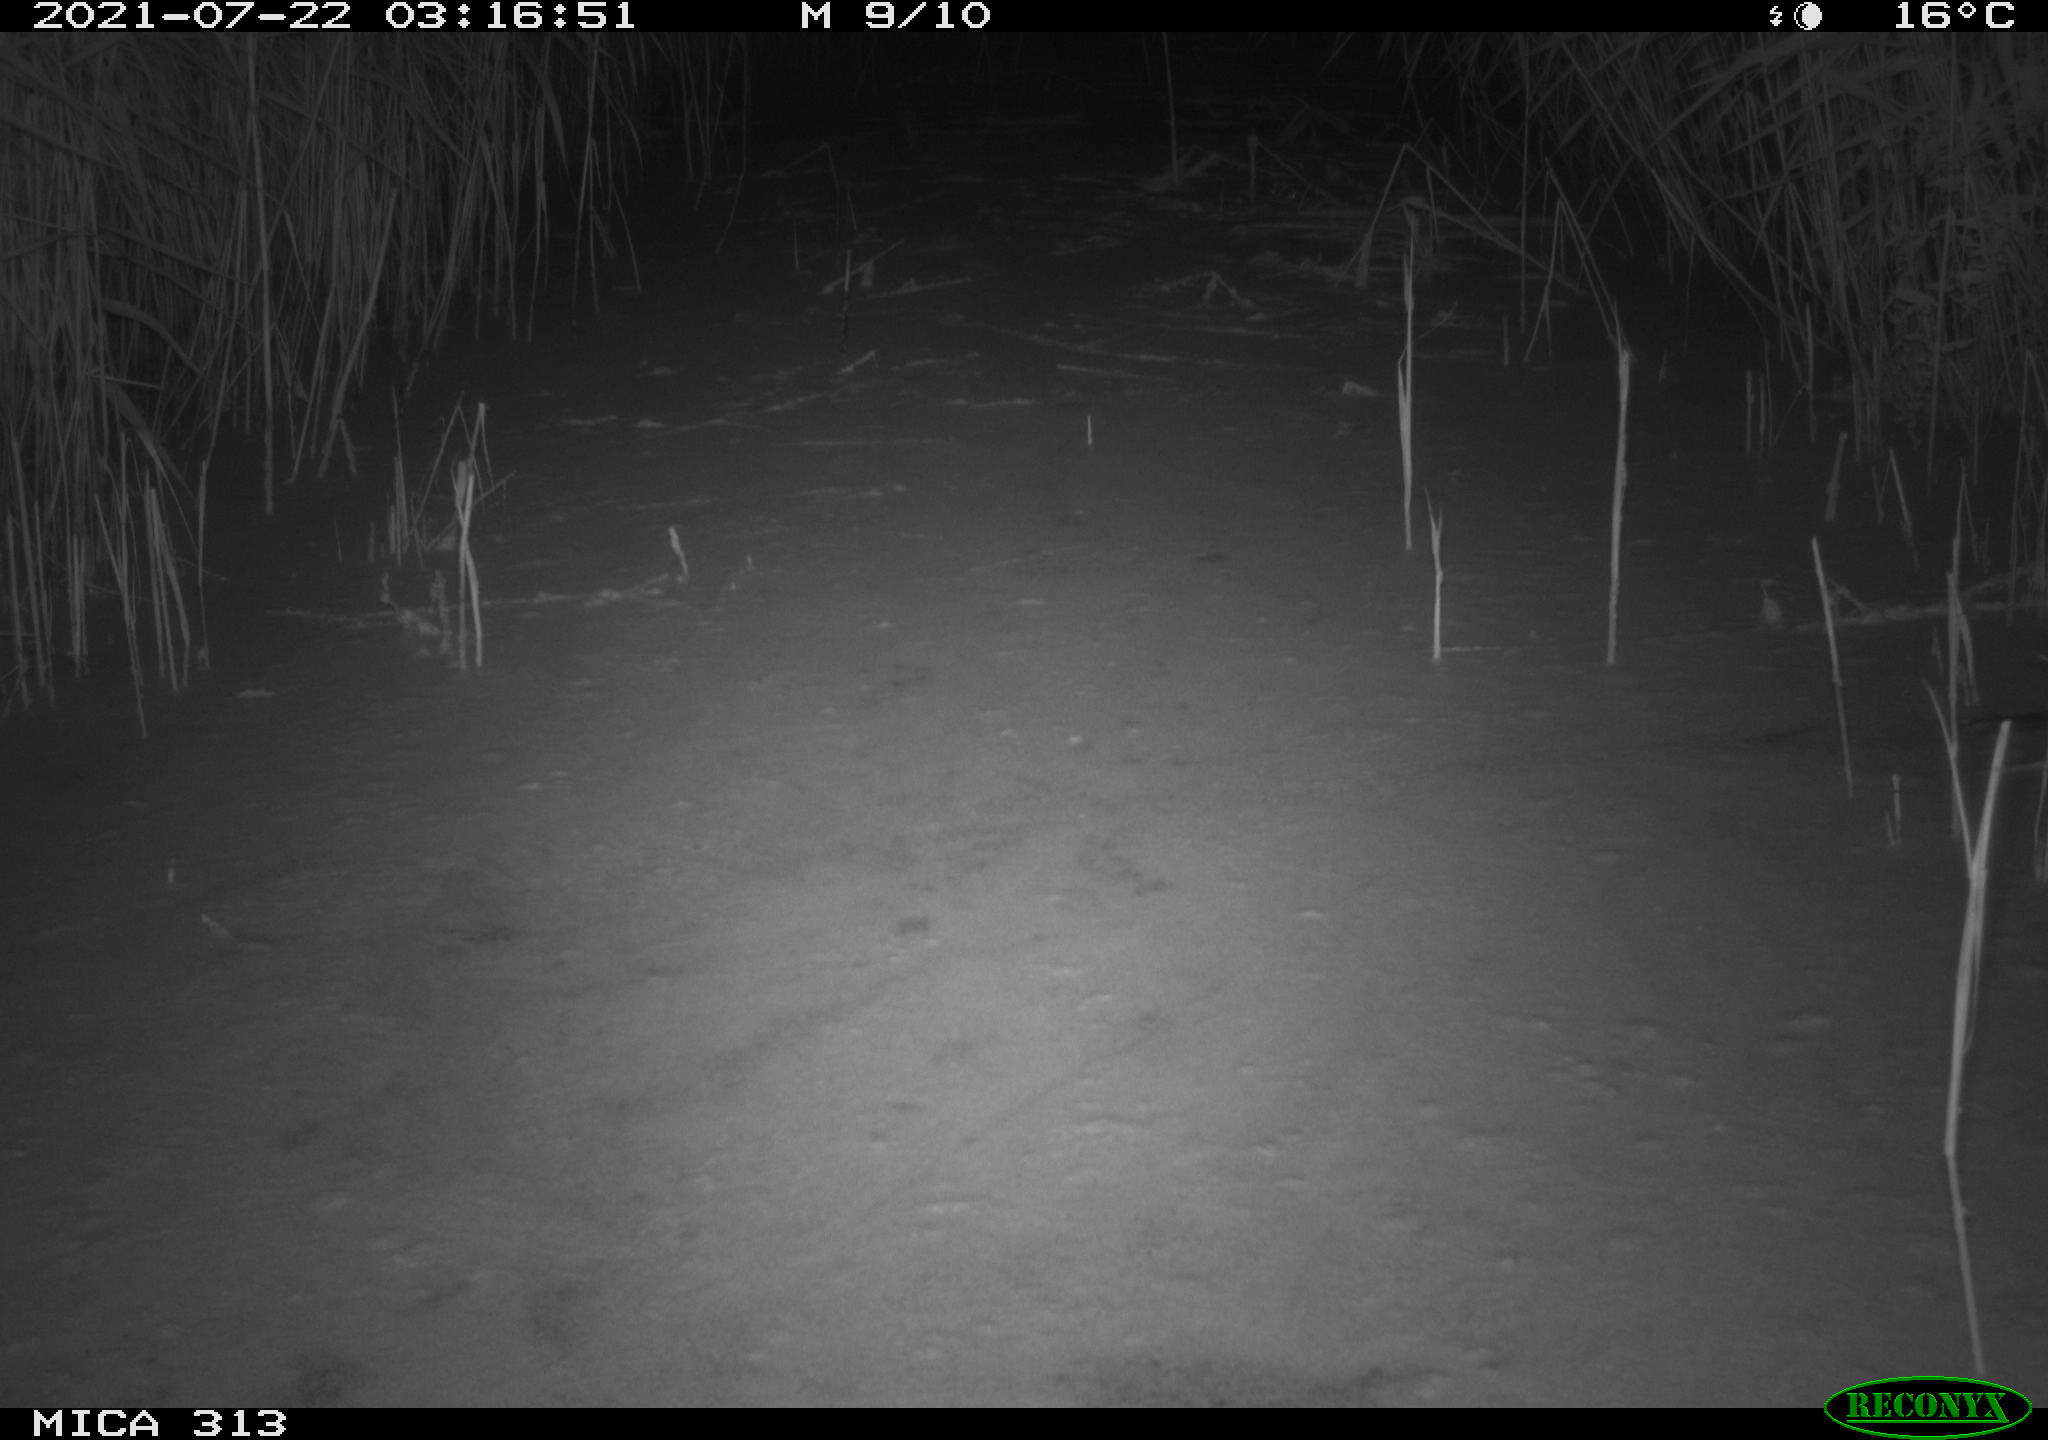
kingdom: Animalia
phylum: Chordata
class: Mammalia
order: Rodentia
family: Muridae
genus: Rattus
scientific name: Rattus norvegicus
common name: Brown rat
